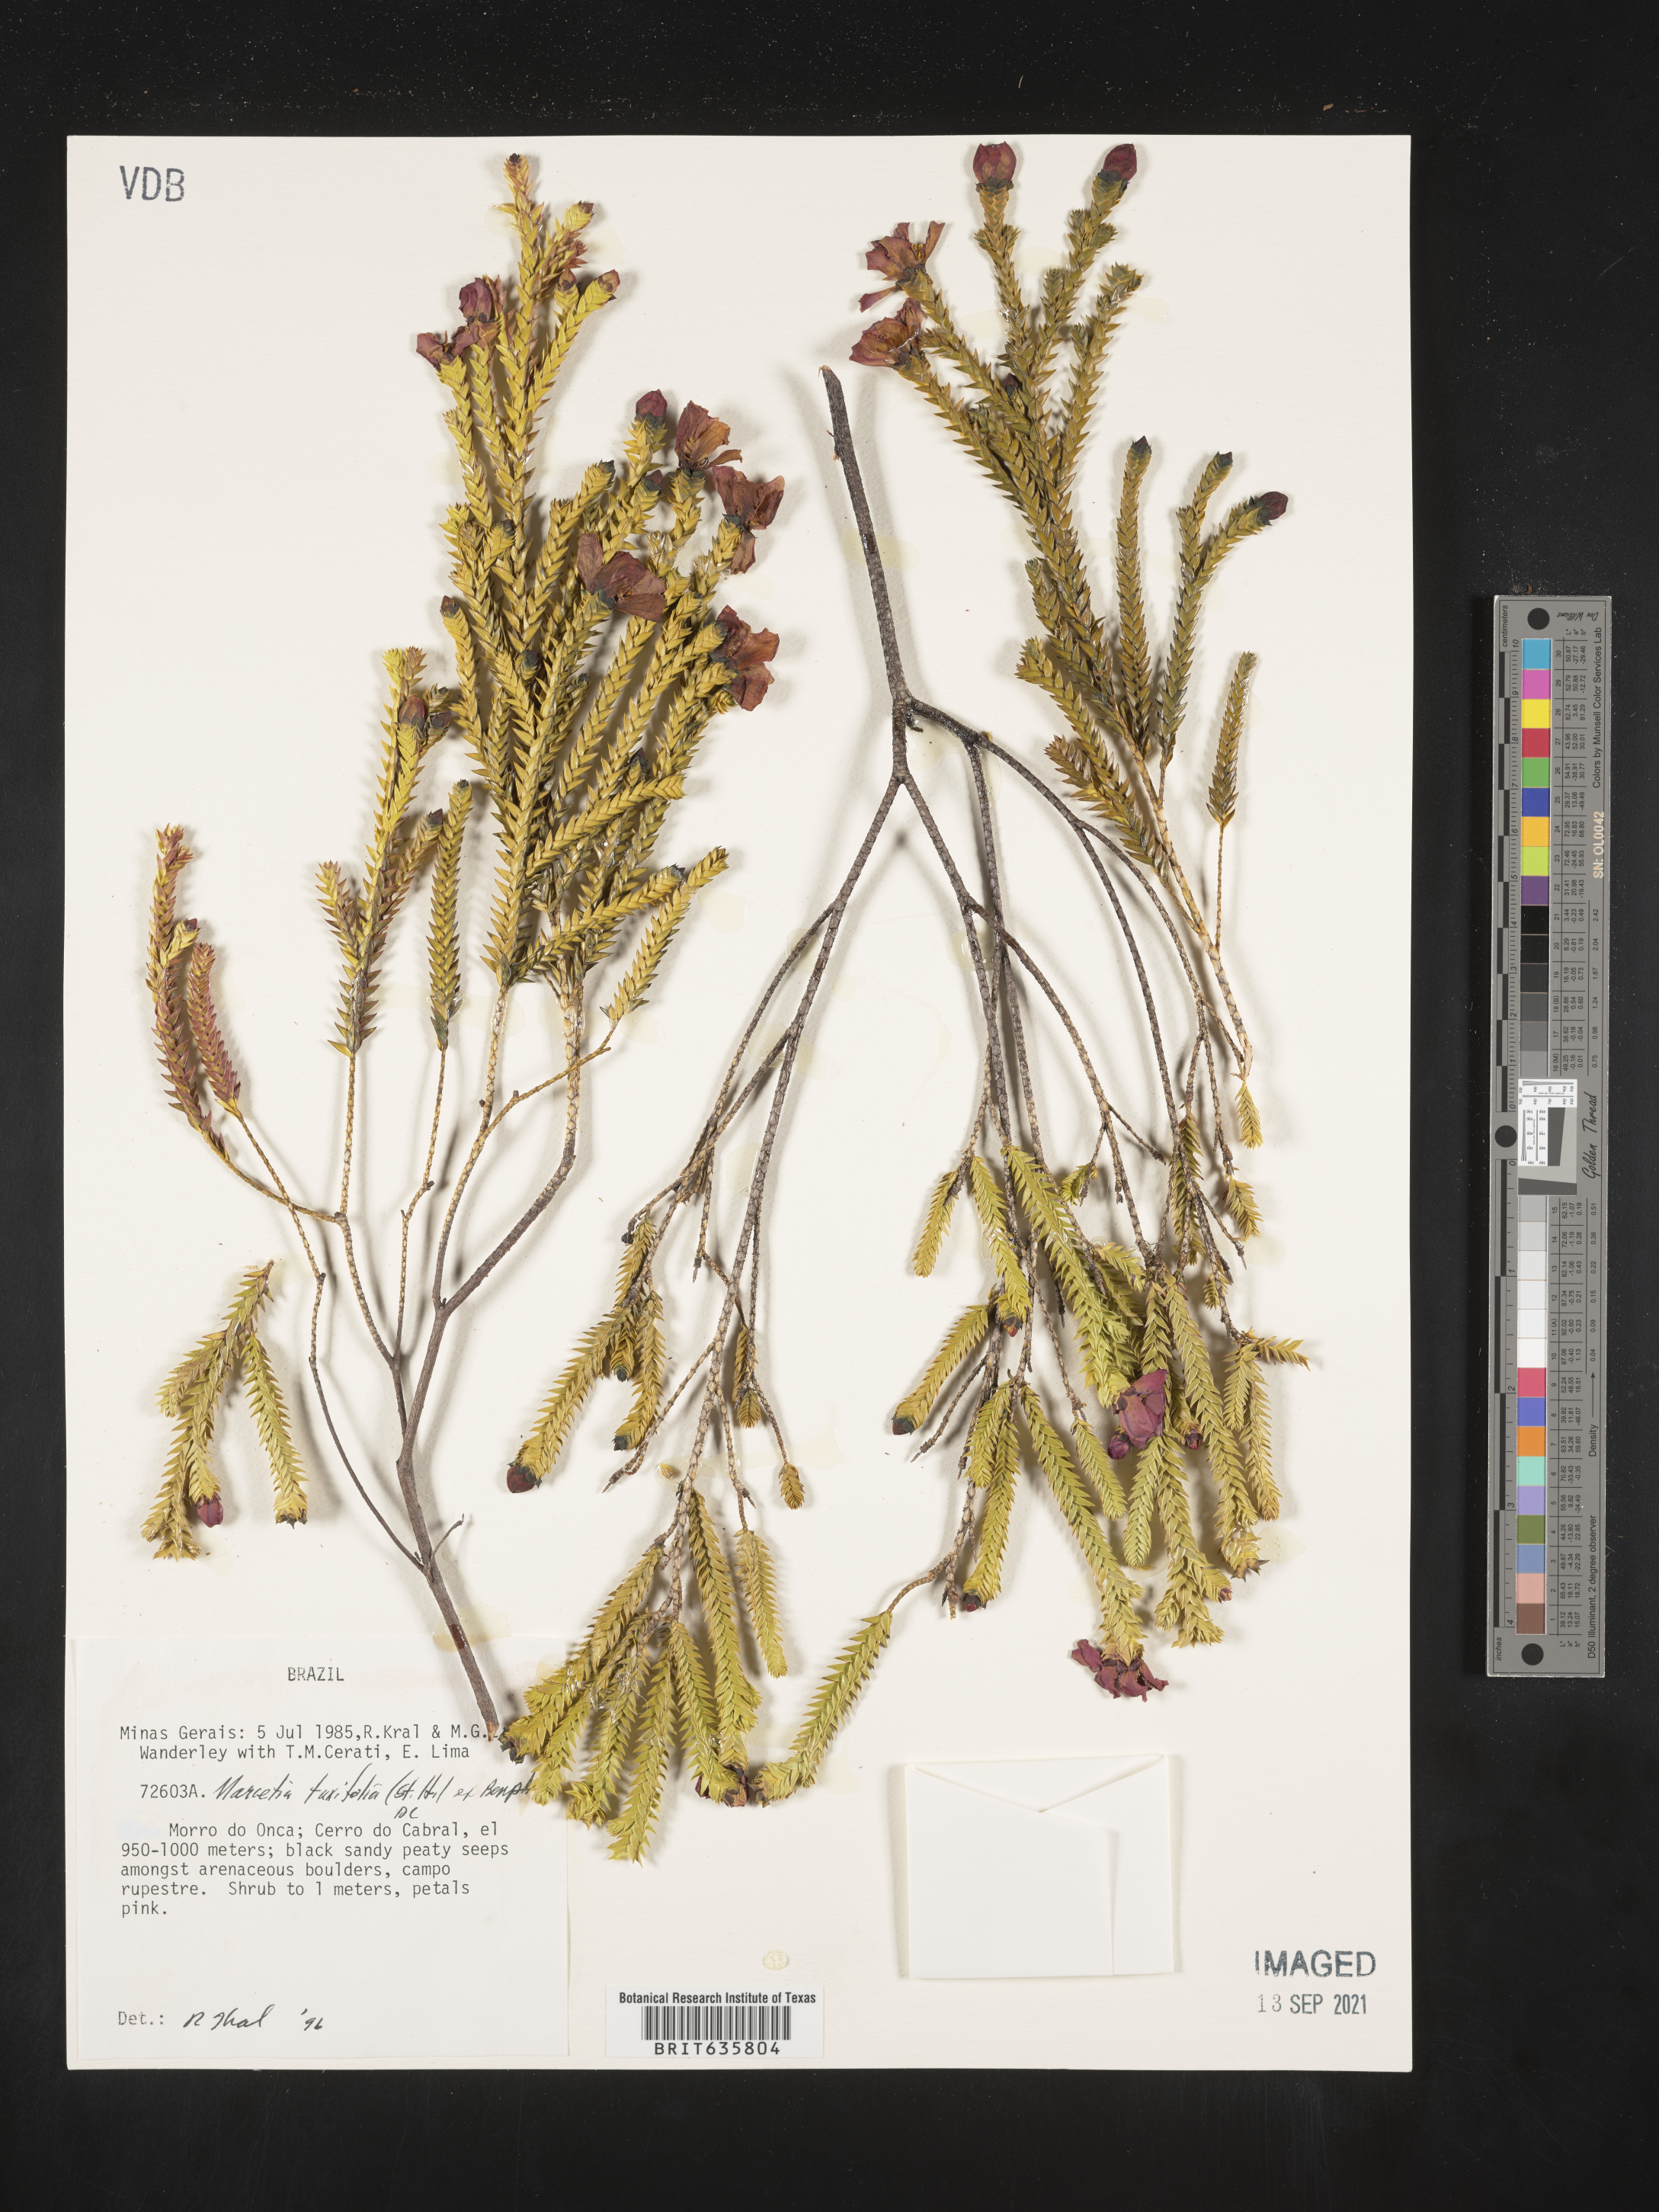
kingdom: Plantae
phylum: Tracheophyta
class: Magnoliopsida
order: Myrtales
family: Melastomataceae
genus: Marcetia
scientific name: Marcetia
